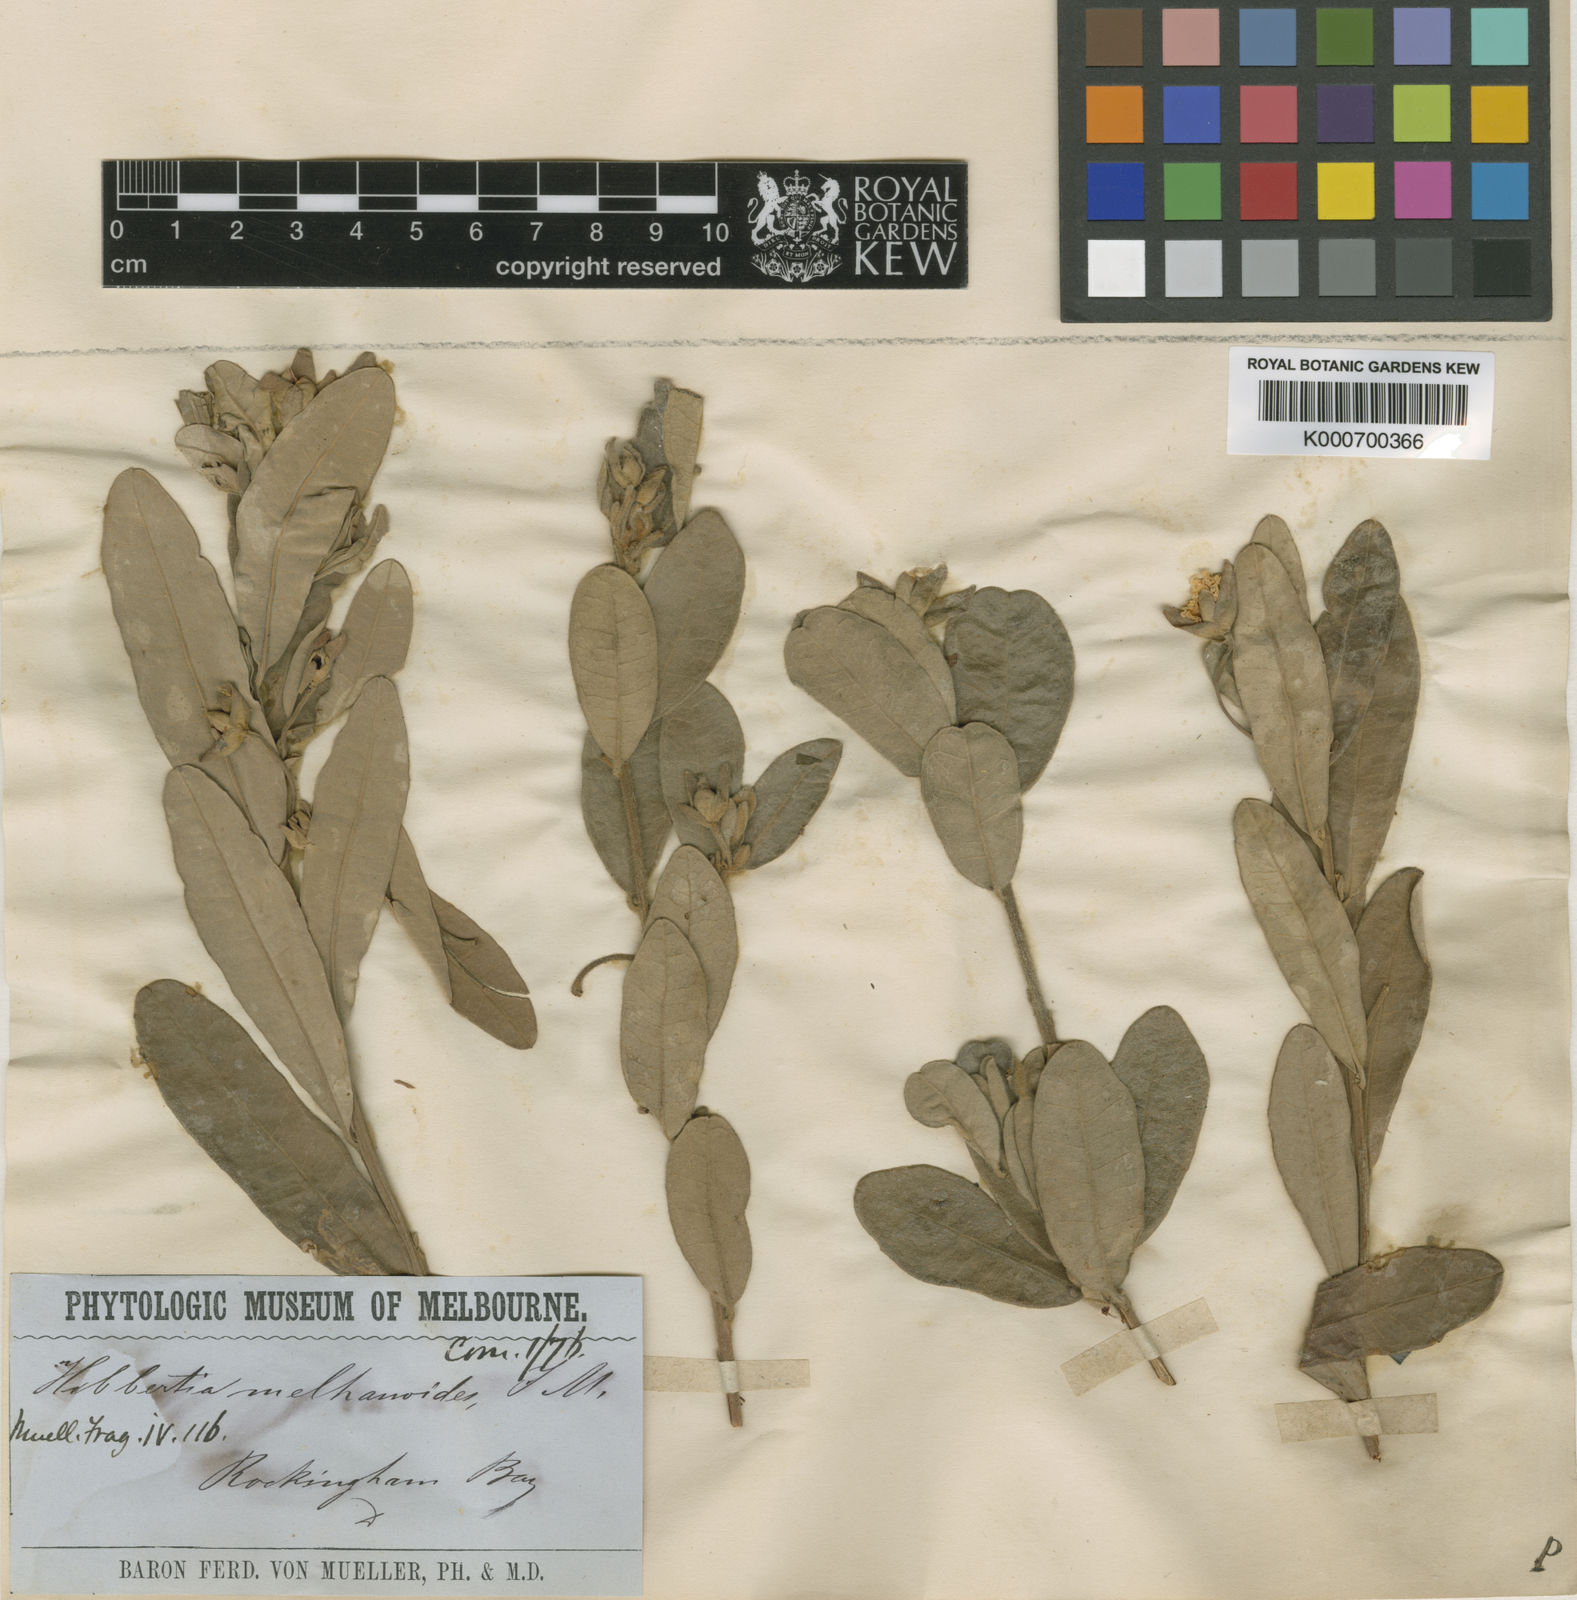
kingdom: Plantae
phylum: Tracheophyta
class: Magnoliopsida
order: Dilleniales
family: Dilleniaceae
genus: Hibbertia
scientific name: Hibbertia
